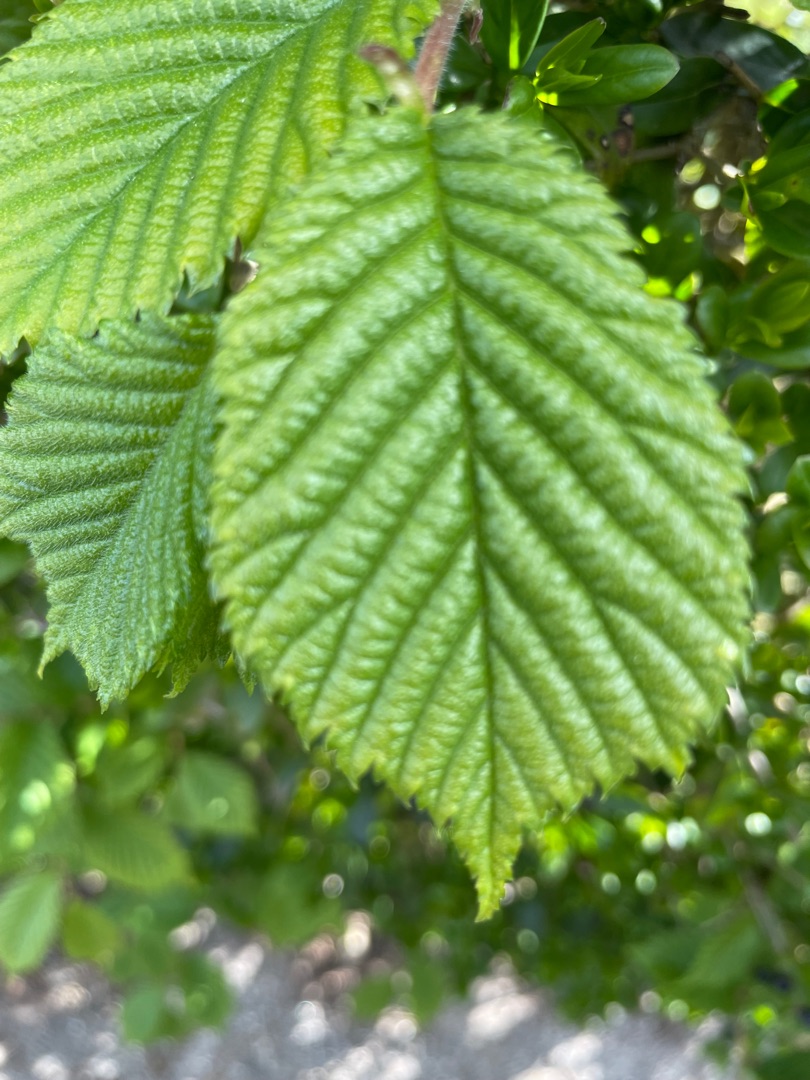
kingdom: Plantae
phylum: Tracheophyta
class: Magnoliopsida
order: Fagales
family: Betulaceae
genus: Corylus
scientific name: Corylus avellana
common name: Hassel
